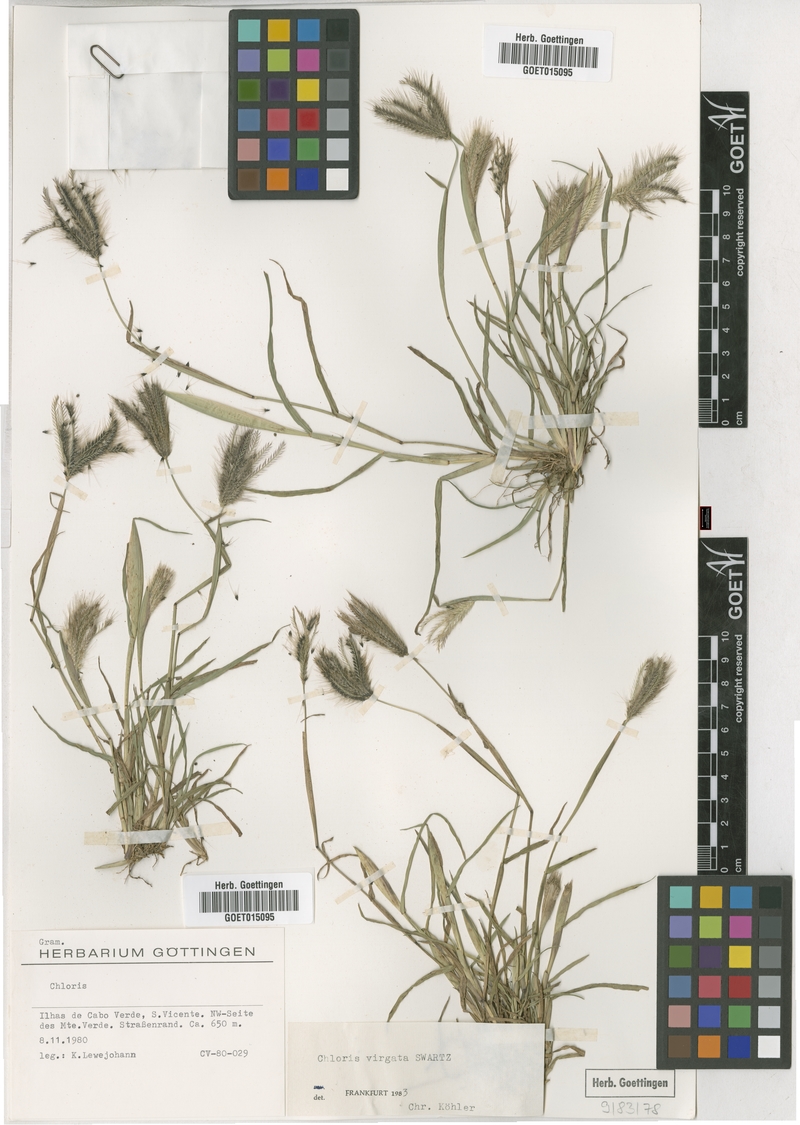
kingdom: Plantae
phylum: Tracheophyta
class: Liliopsida
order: Poales
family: Poaceae
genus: Chloris
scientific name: Chloris virgata
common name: Feathery rhodes-grass
